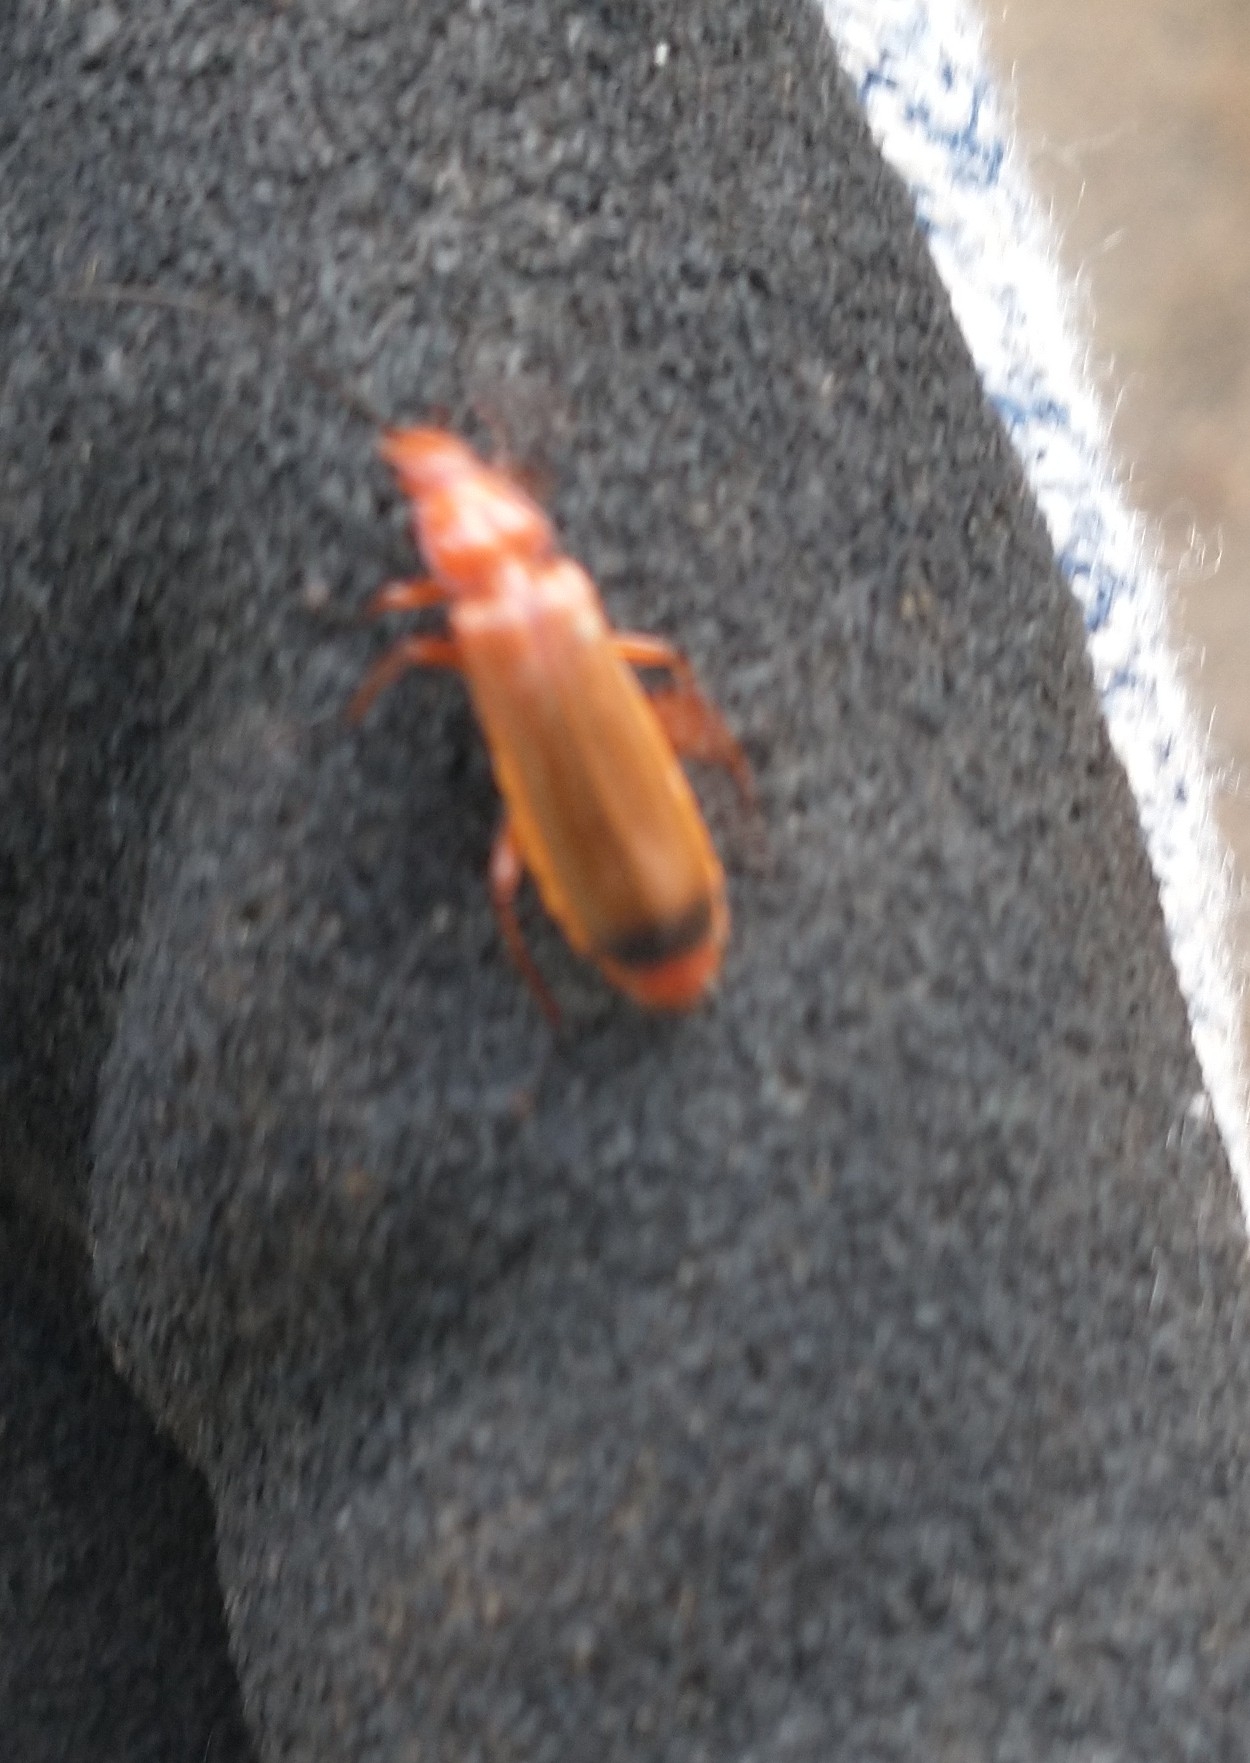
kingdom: Animalia
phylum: Arthropoda
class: Insecta
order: Coleoptera
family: Cantharidae
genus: Rhagonycha
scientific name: Rhagonycha fulva
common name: Præstebille
